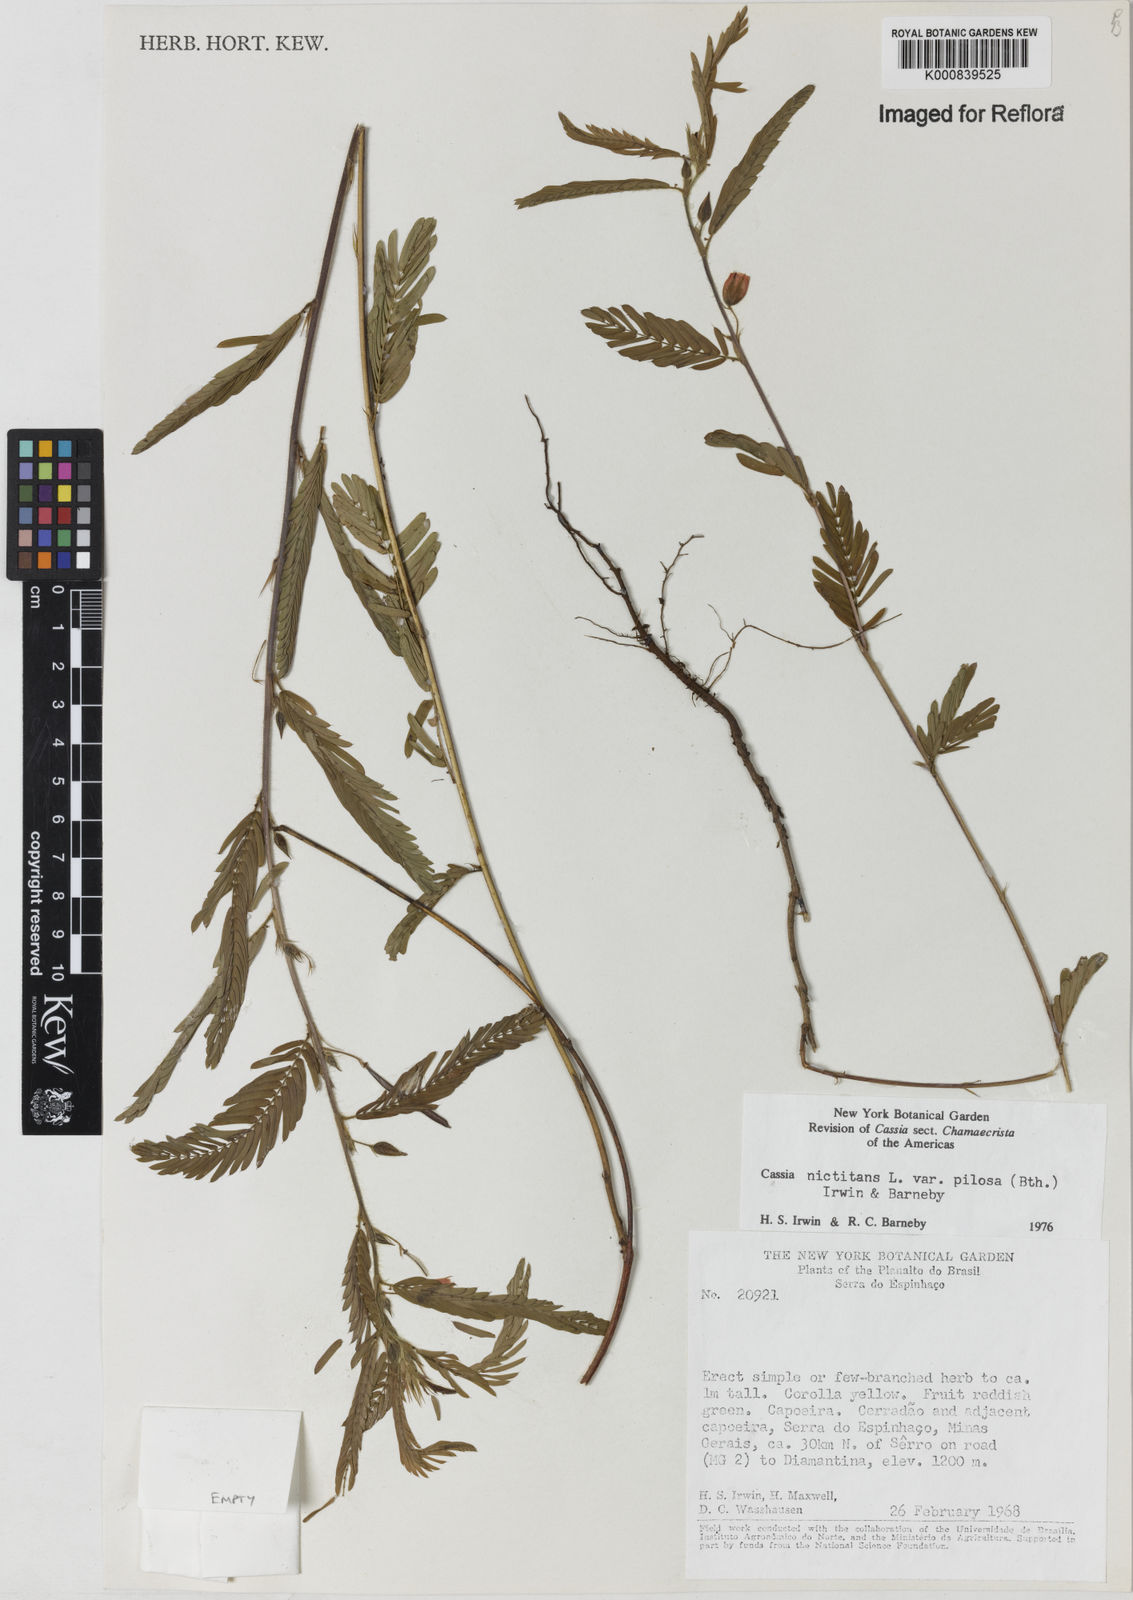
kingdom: Plantae
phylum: Tracheophyta
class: Magnoliopsida
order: Fabales
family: Fabaceae
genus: Chamaecrista
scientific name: Chamaecrista nictitans
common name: Sensitive cassia
